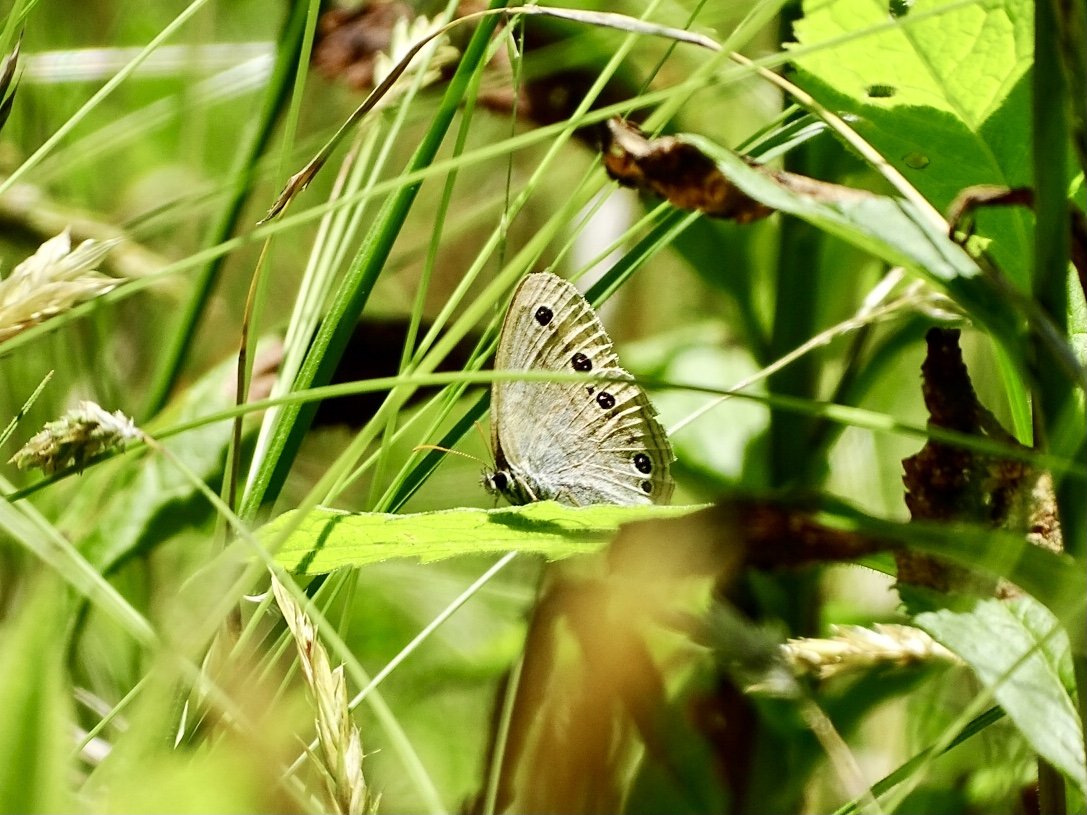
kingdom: Animalia
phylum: Arthropoda
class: Insecta
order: Lepidoptera
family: Nymphalidae
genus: Euptychia
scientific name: Euptychia cymela
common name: Little Wood Satyr
